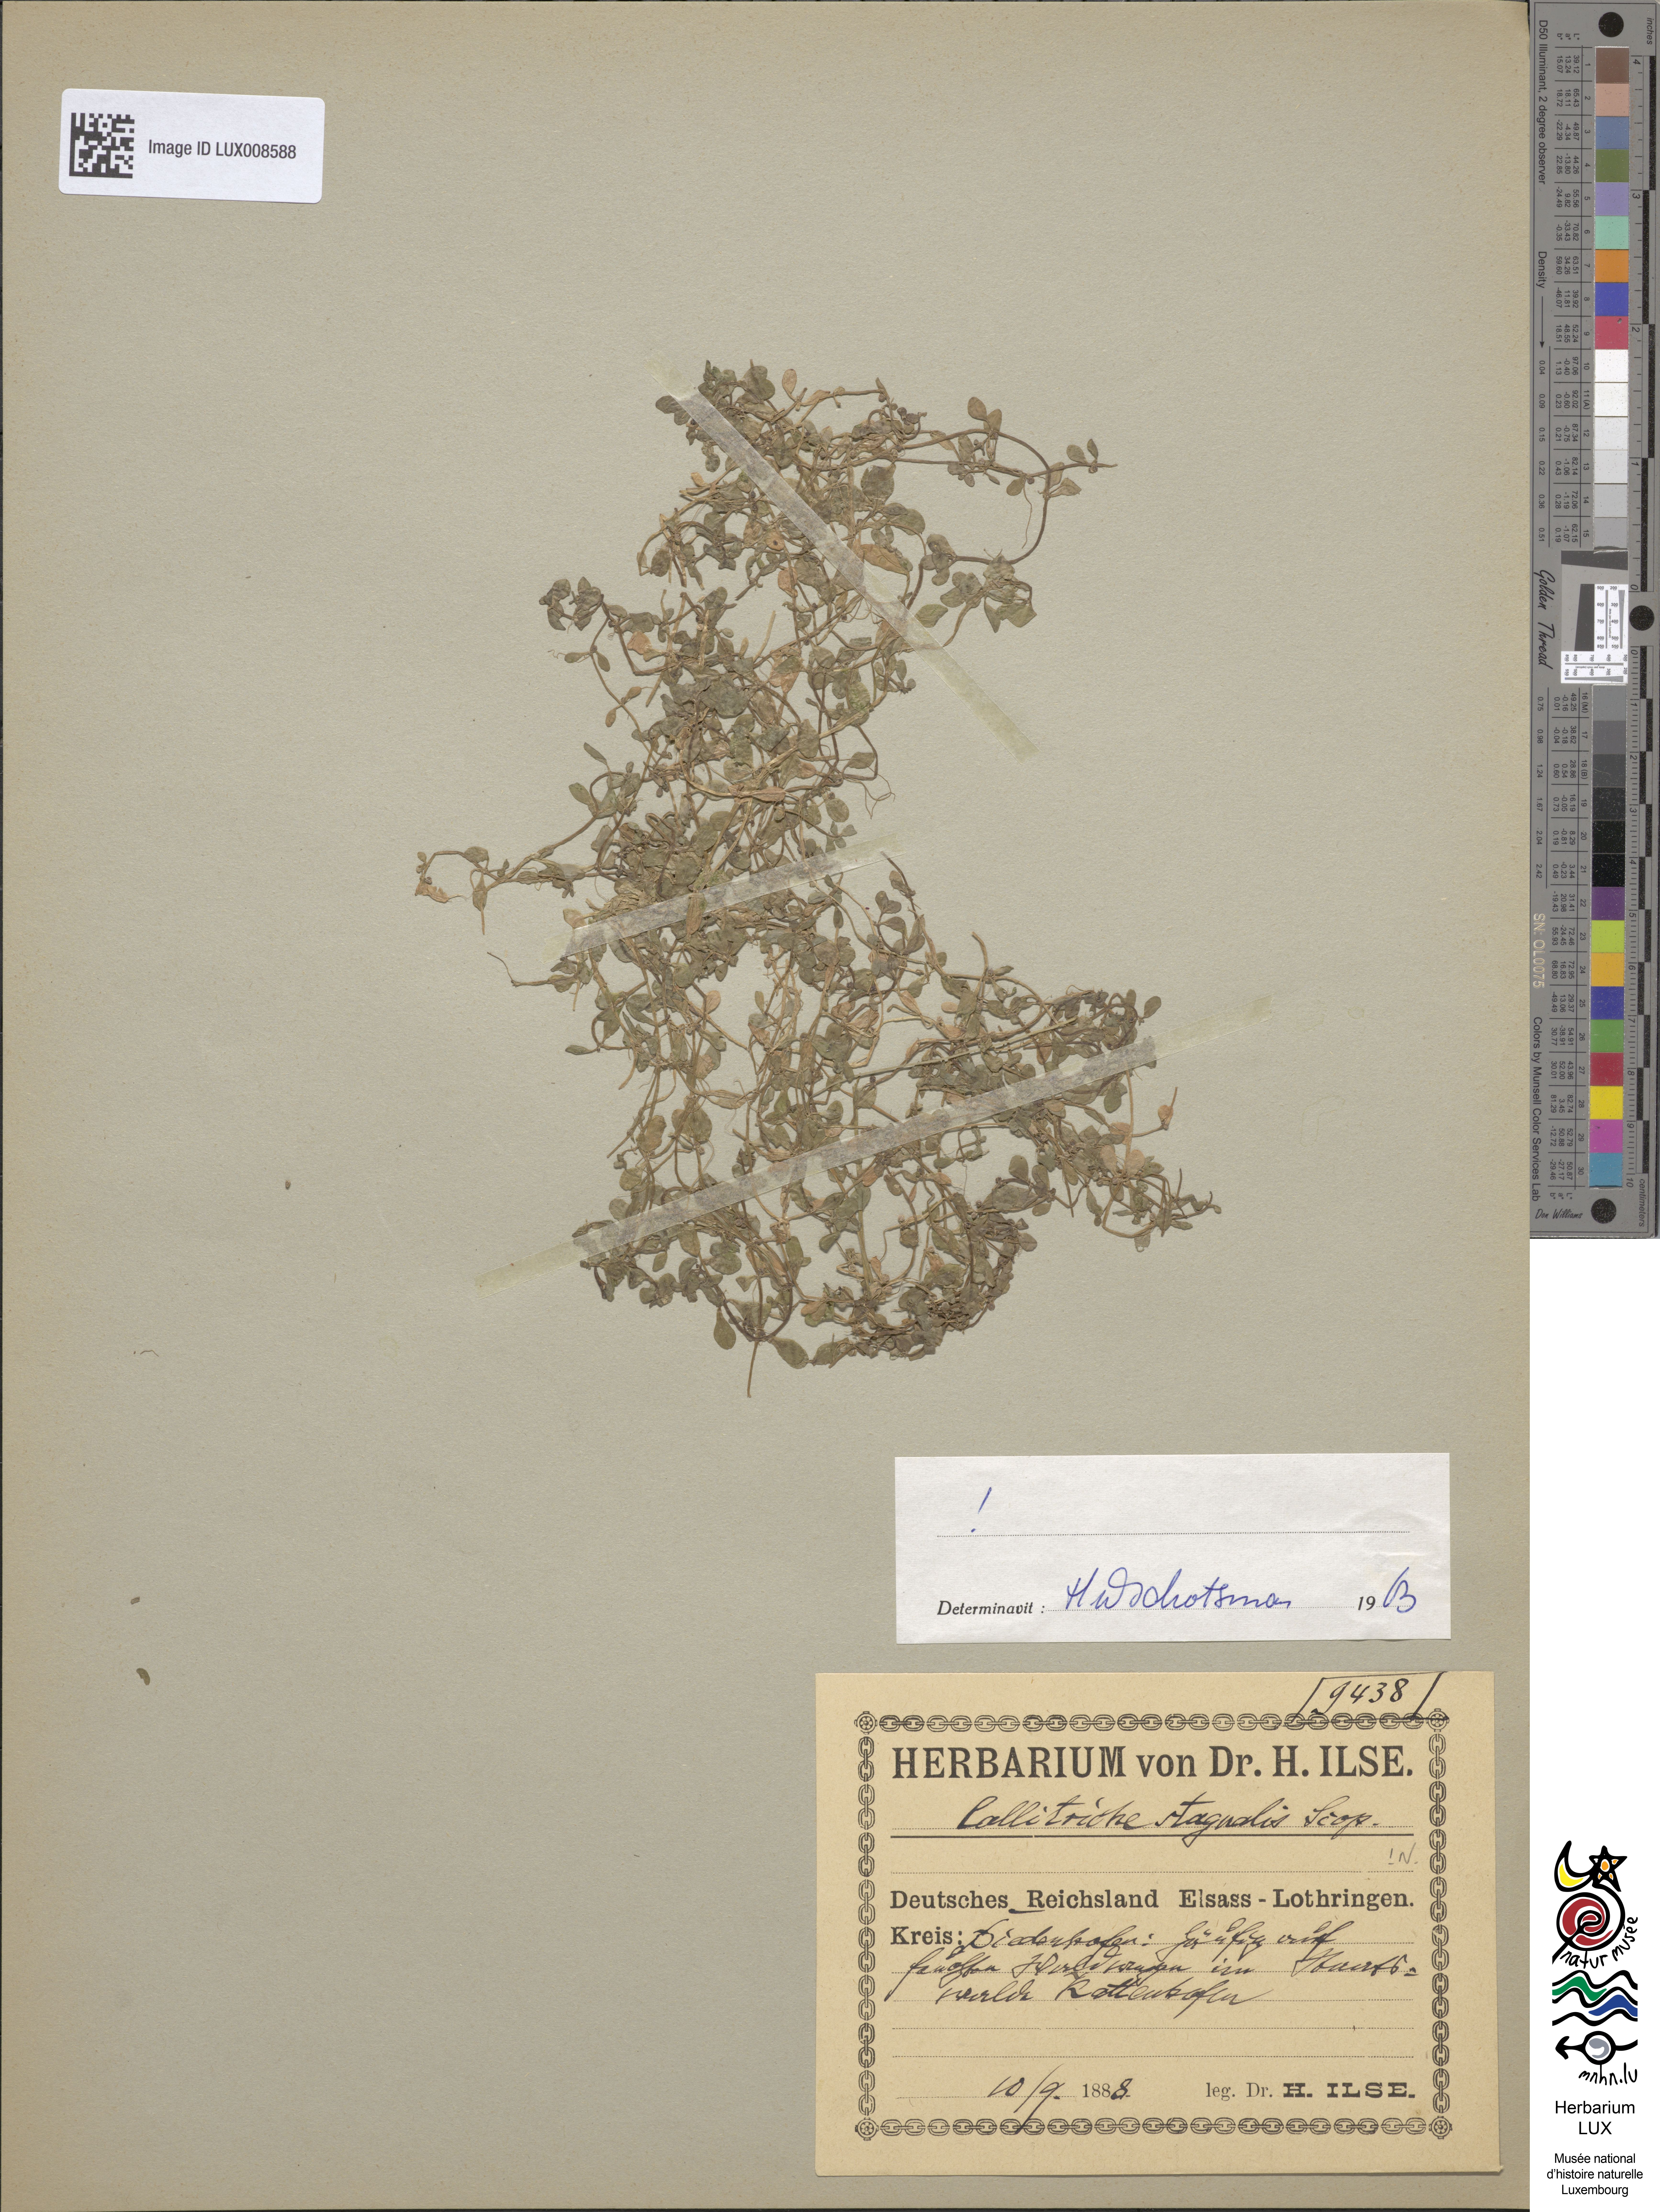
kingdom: Plantae
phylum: Tracheophyta
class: Magnoliopsida
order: Lamiales
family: Plantaginaceae
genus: Callitriche
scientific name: Callitriche stagnalis
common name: Common water-starwort
